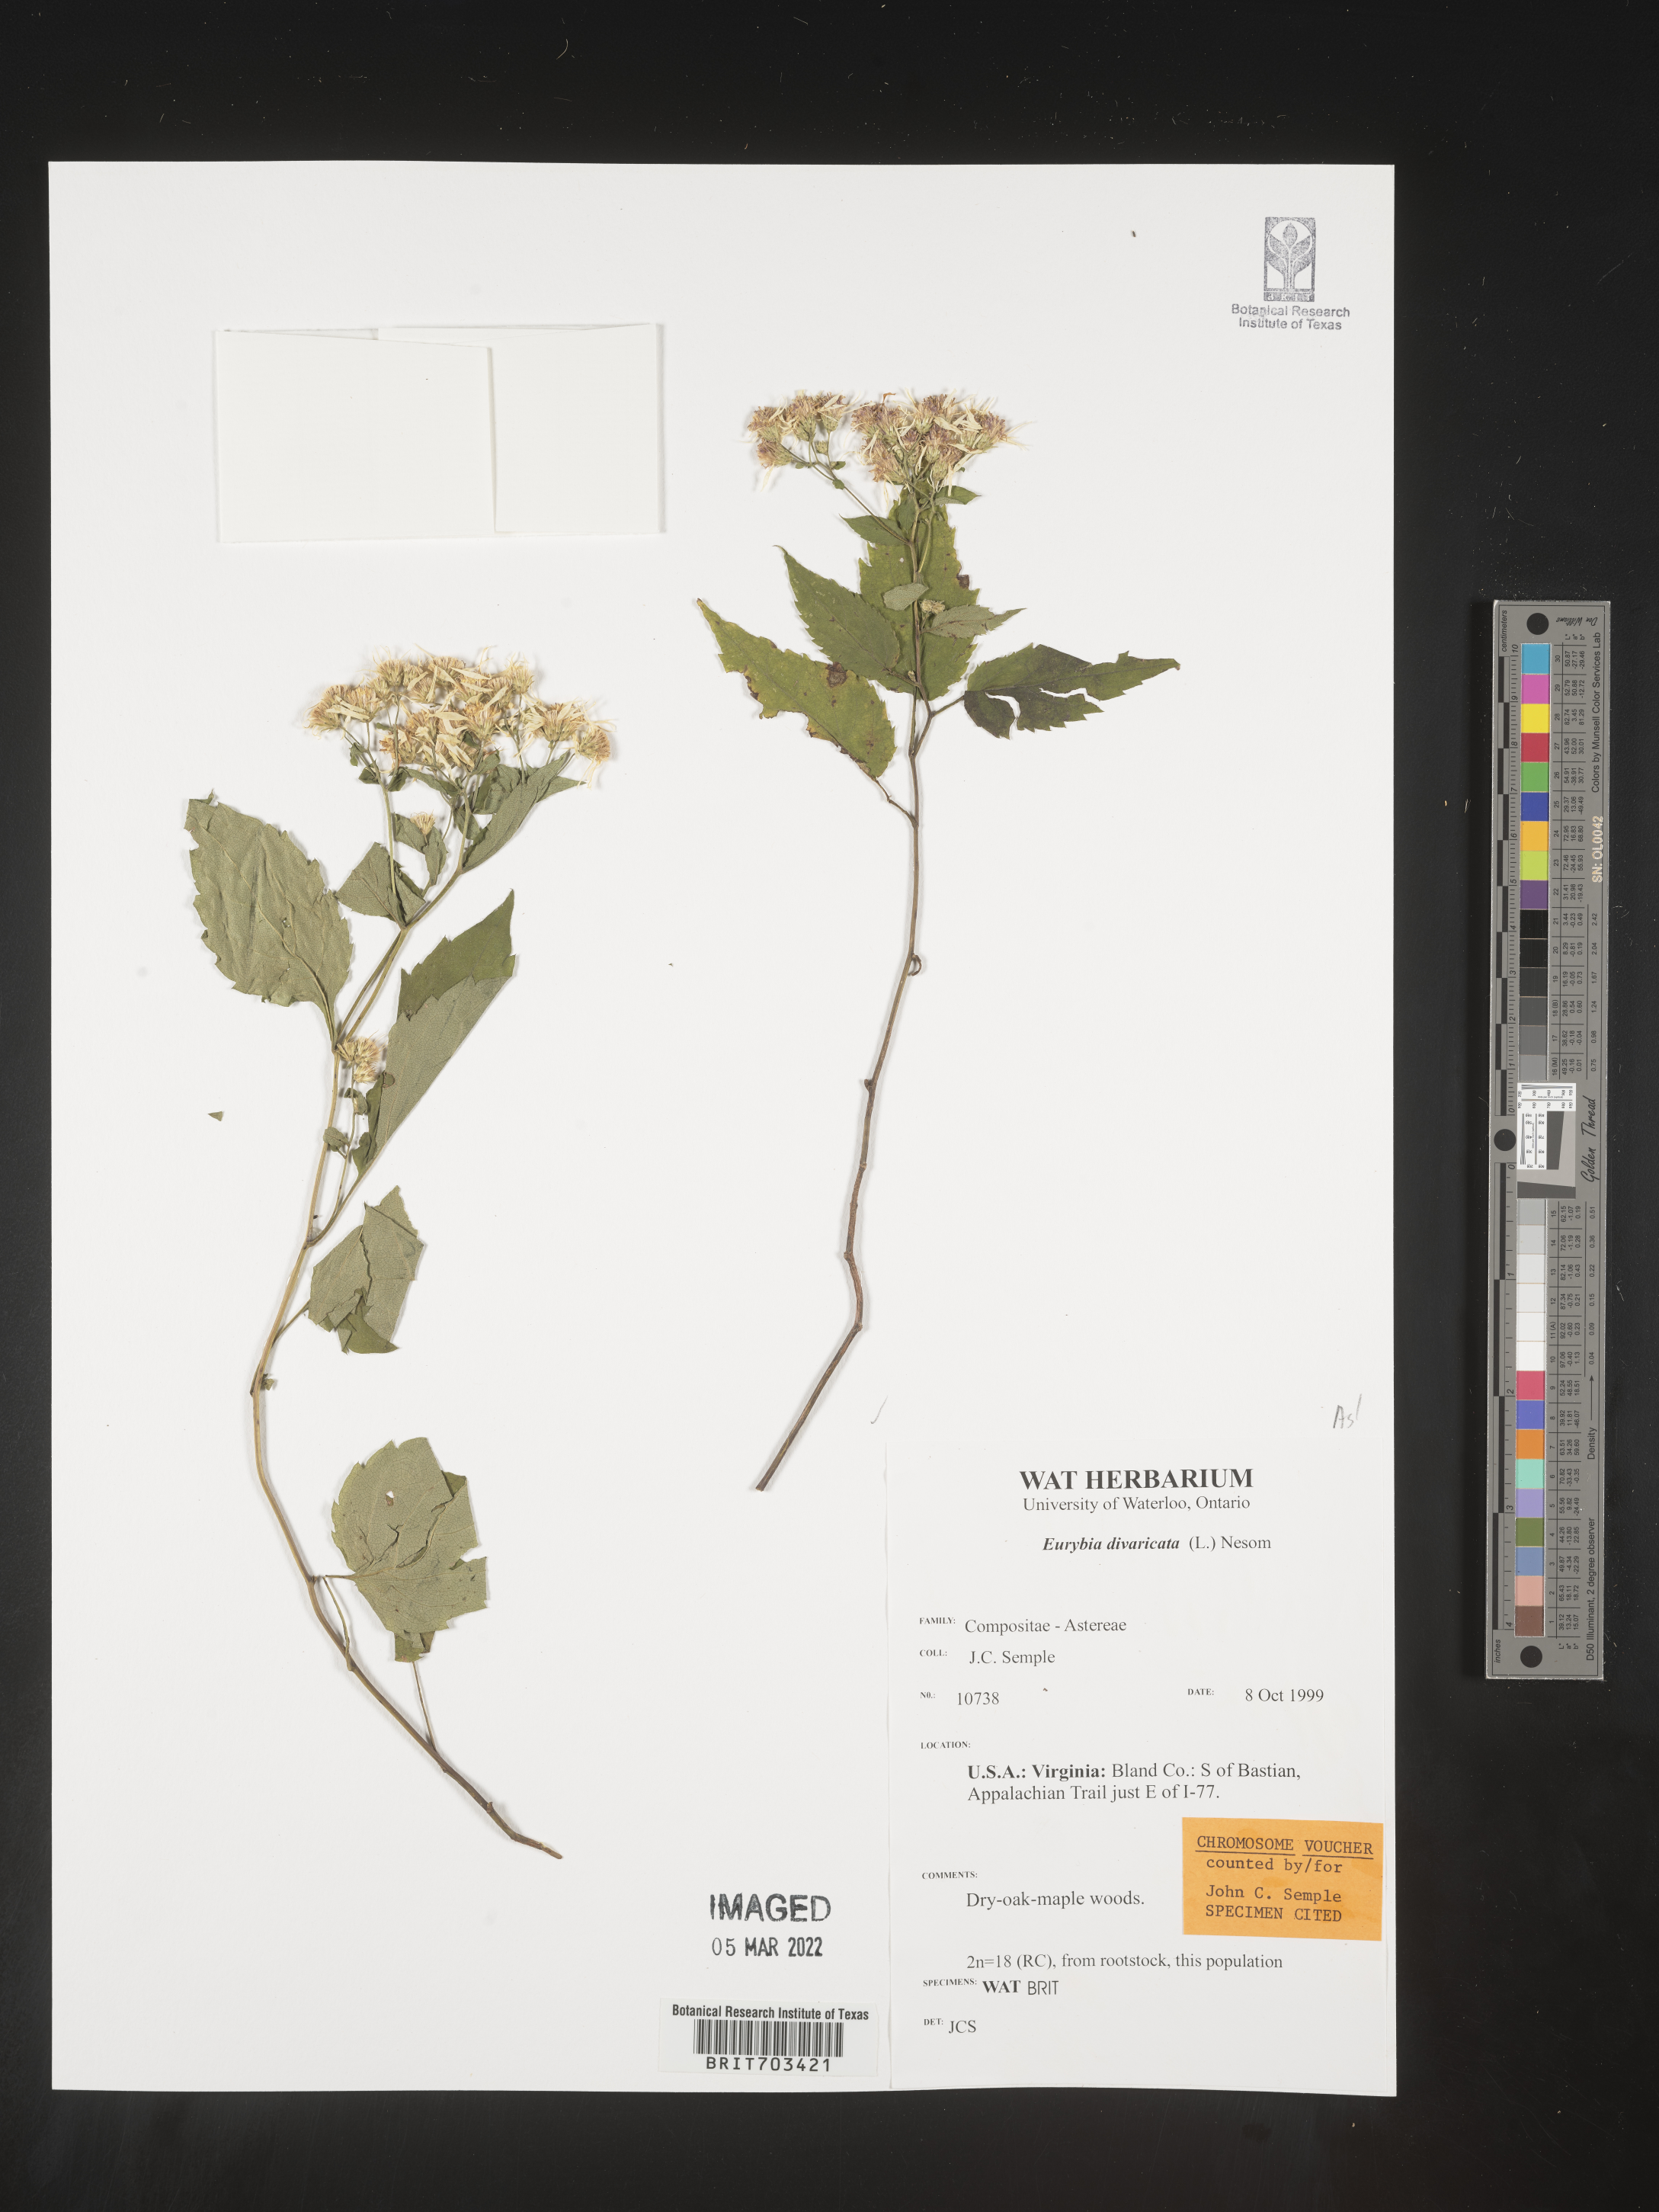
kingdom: Plantae
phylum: Tracheophyta
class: Magnoliopsida
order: Asterales
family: Asteraceae
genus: Eurybia
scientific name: Eurybia divaricata
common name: White wood aster
